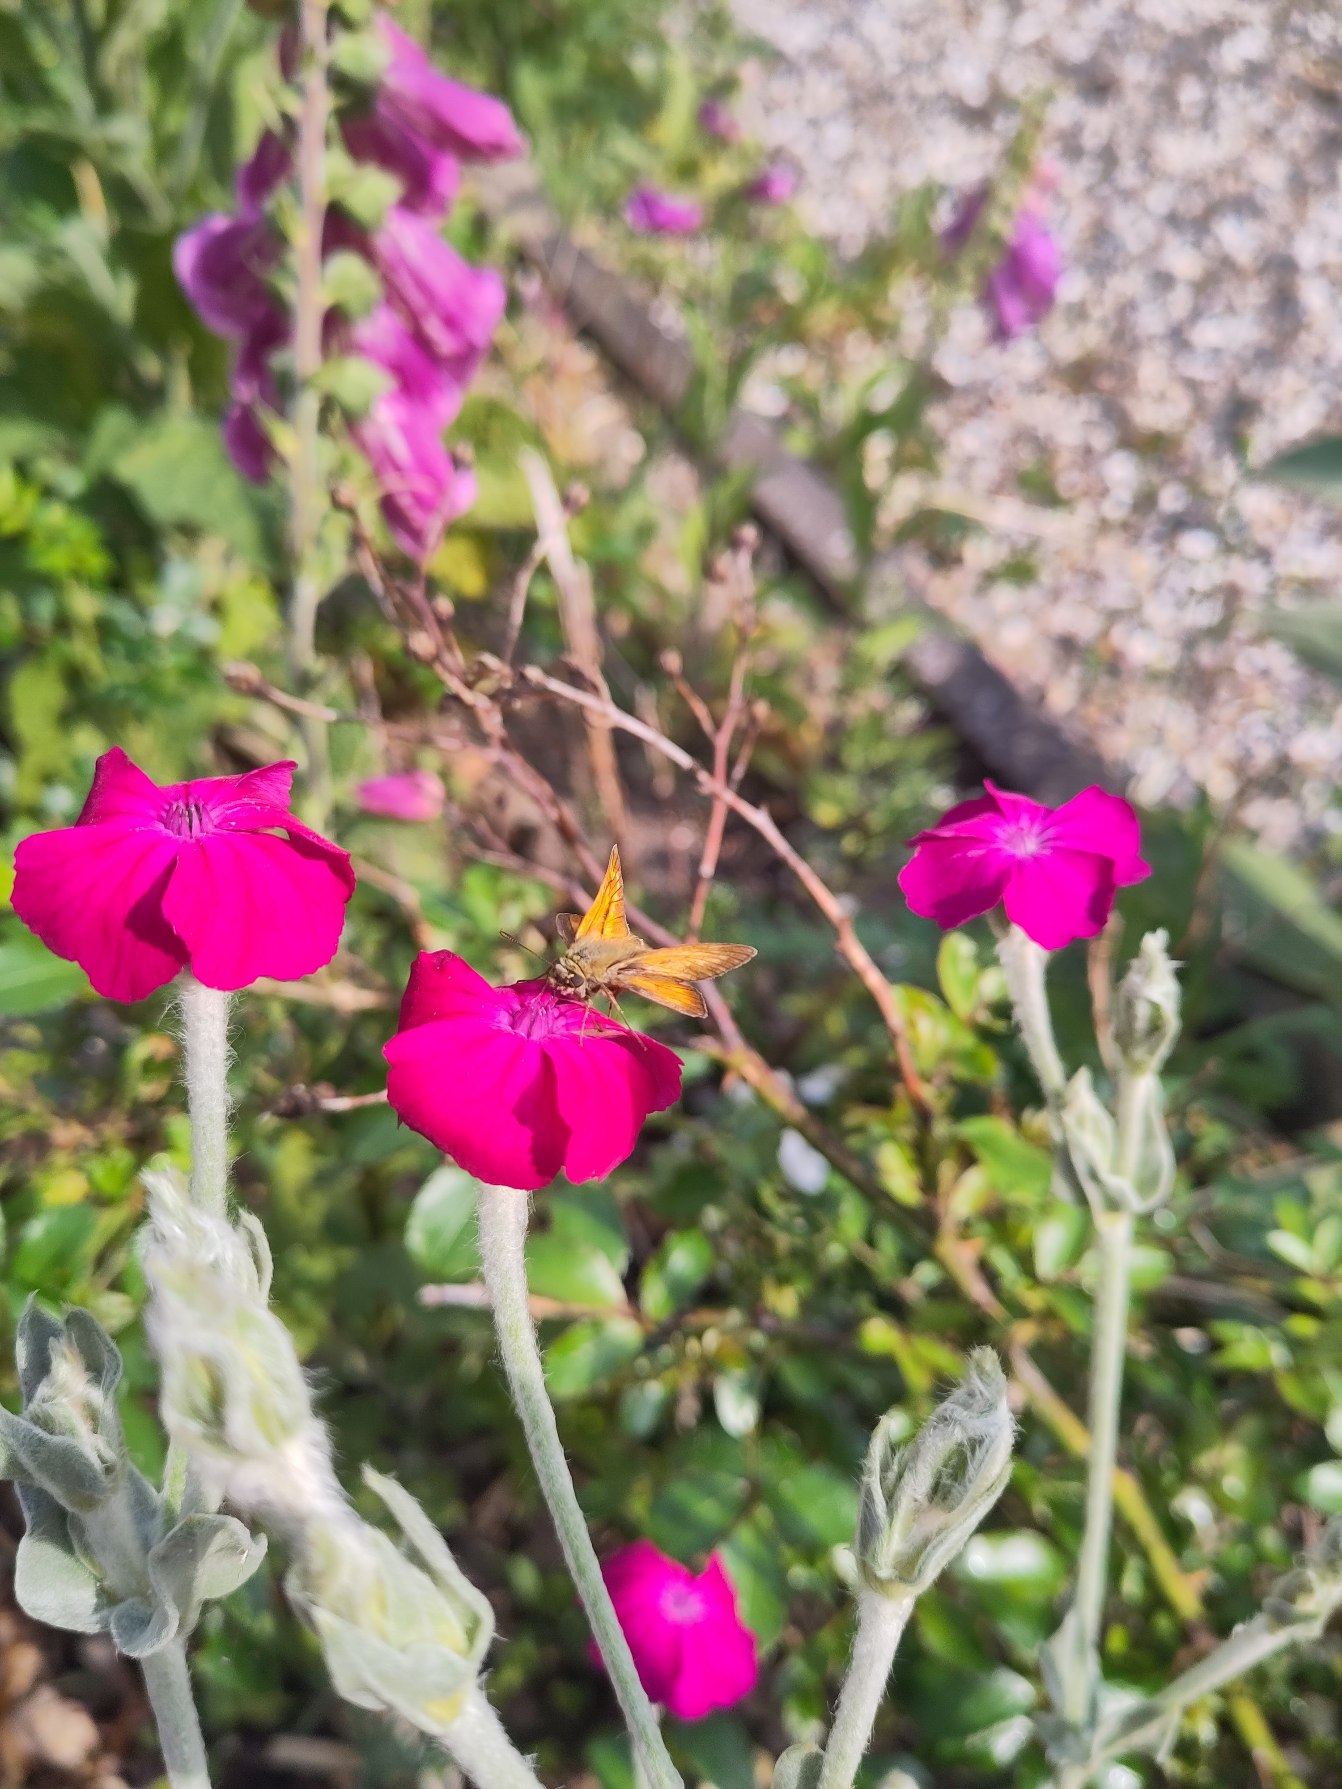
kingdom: Animalia
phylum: Arthropoda
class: Insecta
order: Lepidoptera
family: Hesperiidae
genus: Ochlodes
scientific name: Ochlodes venata
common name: Stor bredpande
